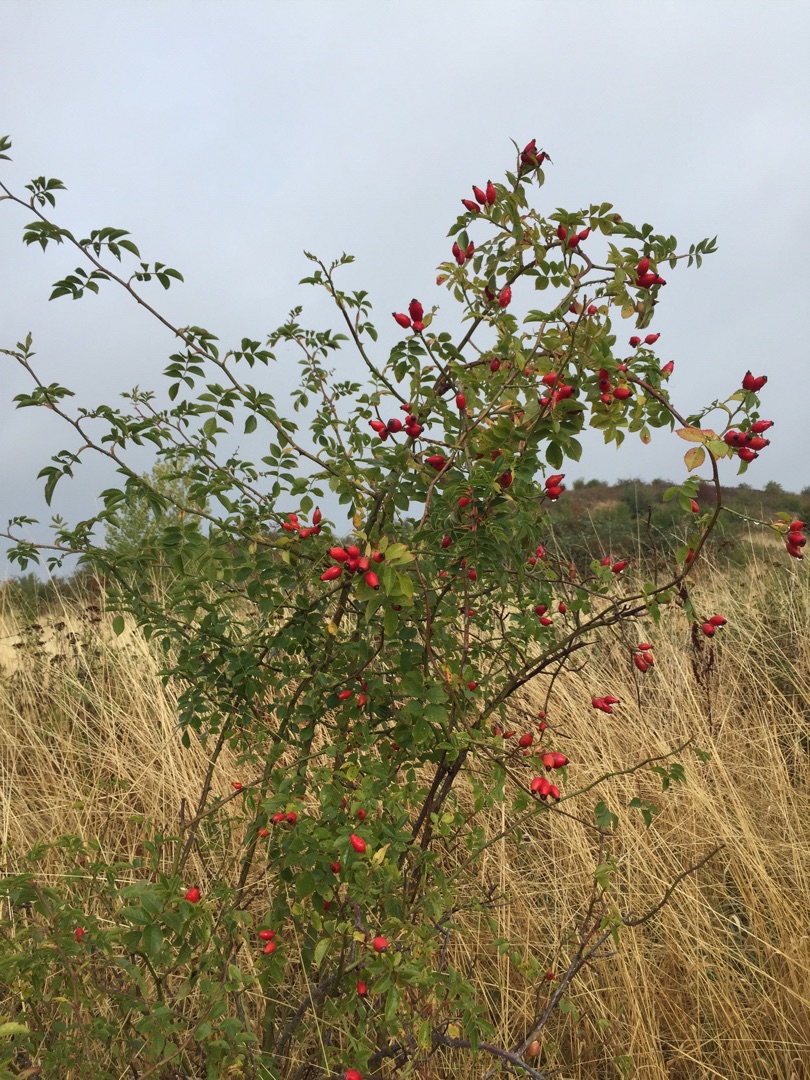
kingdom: Plantae
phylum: Tracheophyta
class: Magnoliopsida
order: Rosales
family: Rosaceae
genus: Rosa
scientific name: Rosa canina
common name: Hunde-rose
